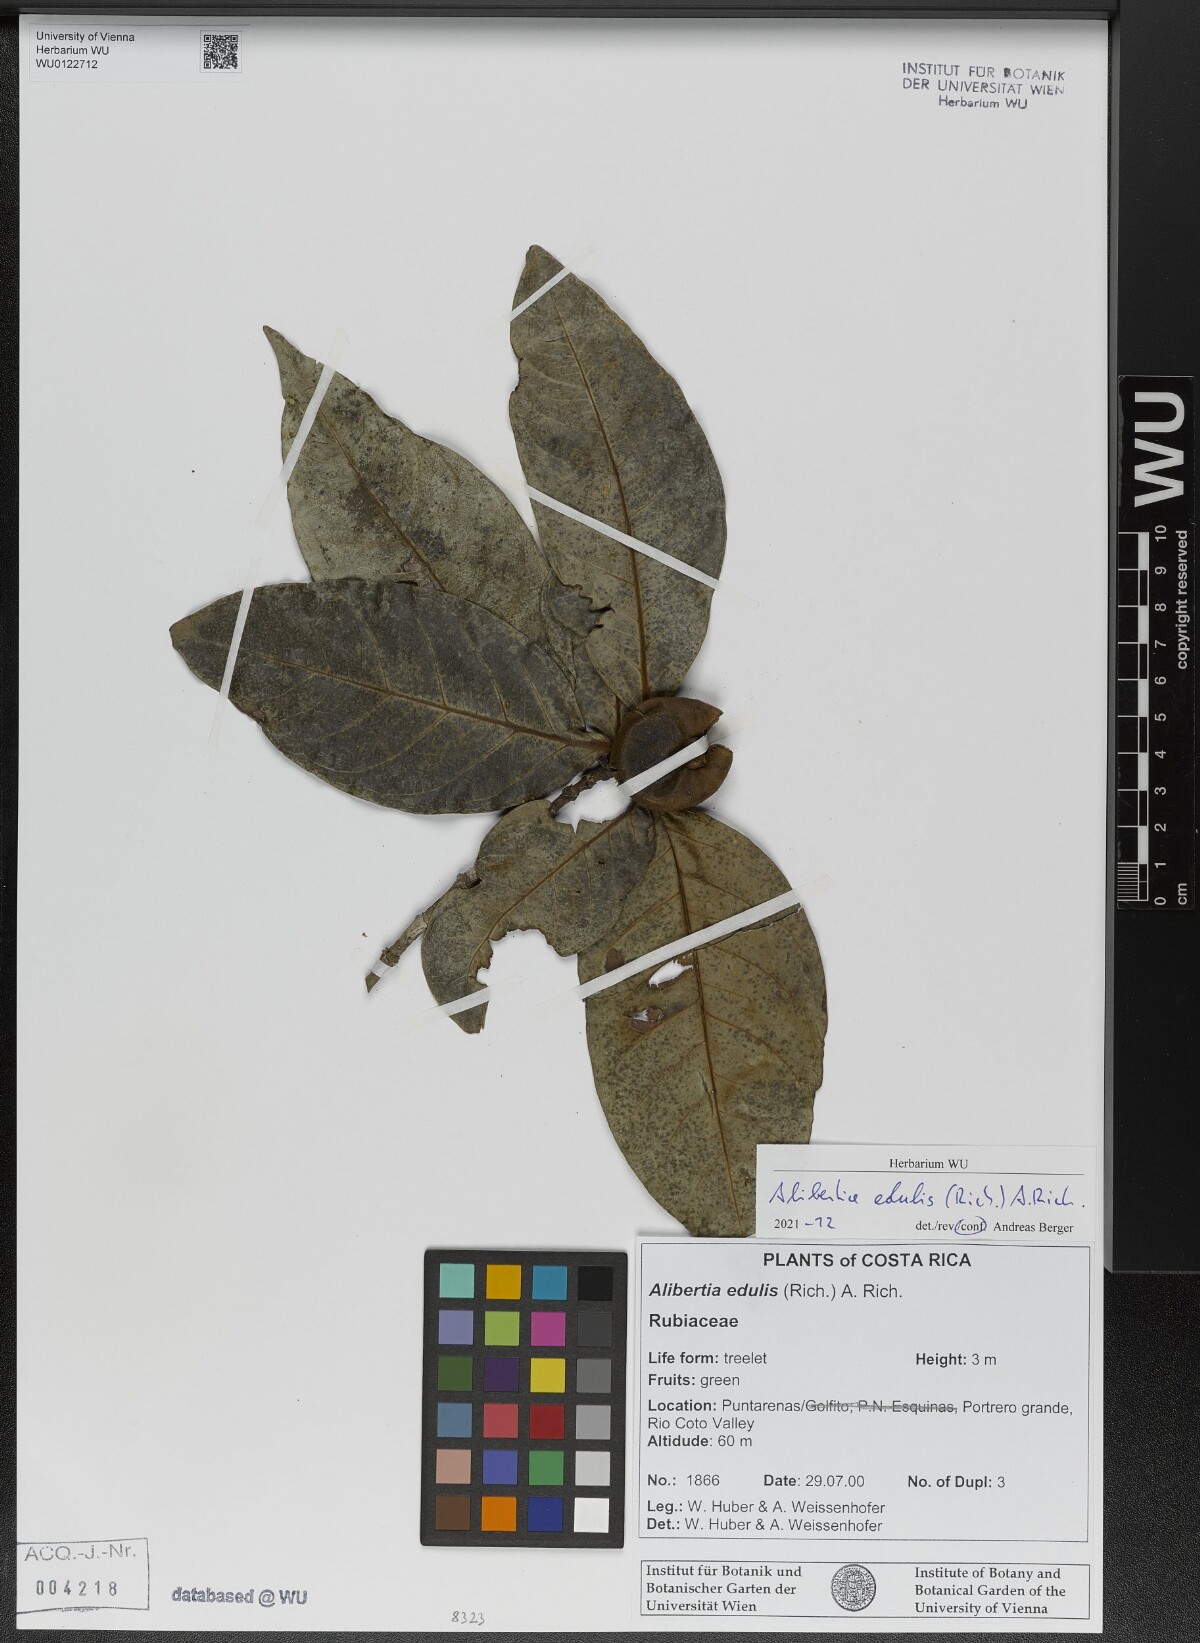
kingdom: Plantae
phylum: Tracheophyta
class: Magnoliopsida
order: Gentianales
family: Rubiaceae
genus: Alibertia
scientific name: Alibertia edulis
